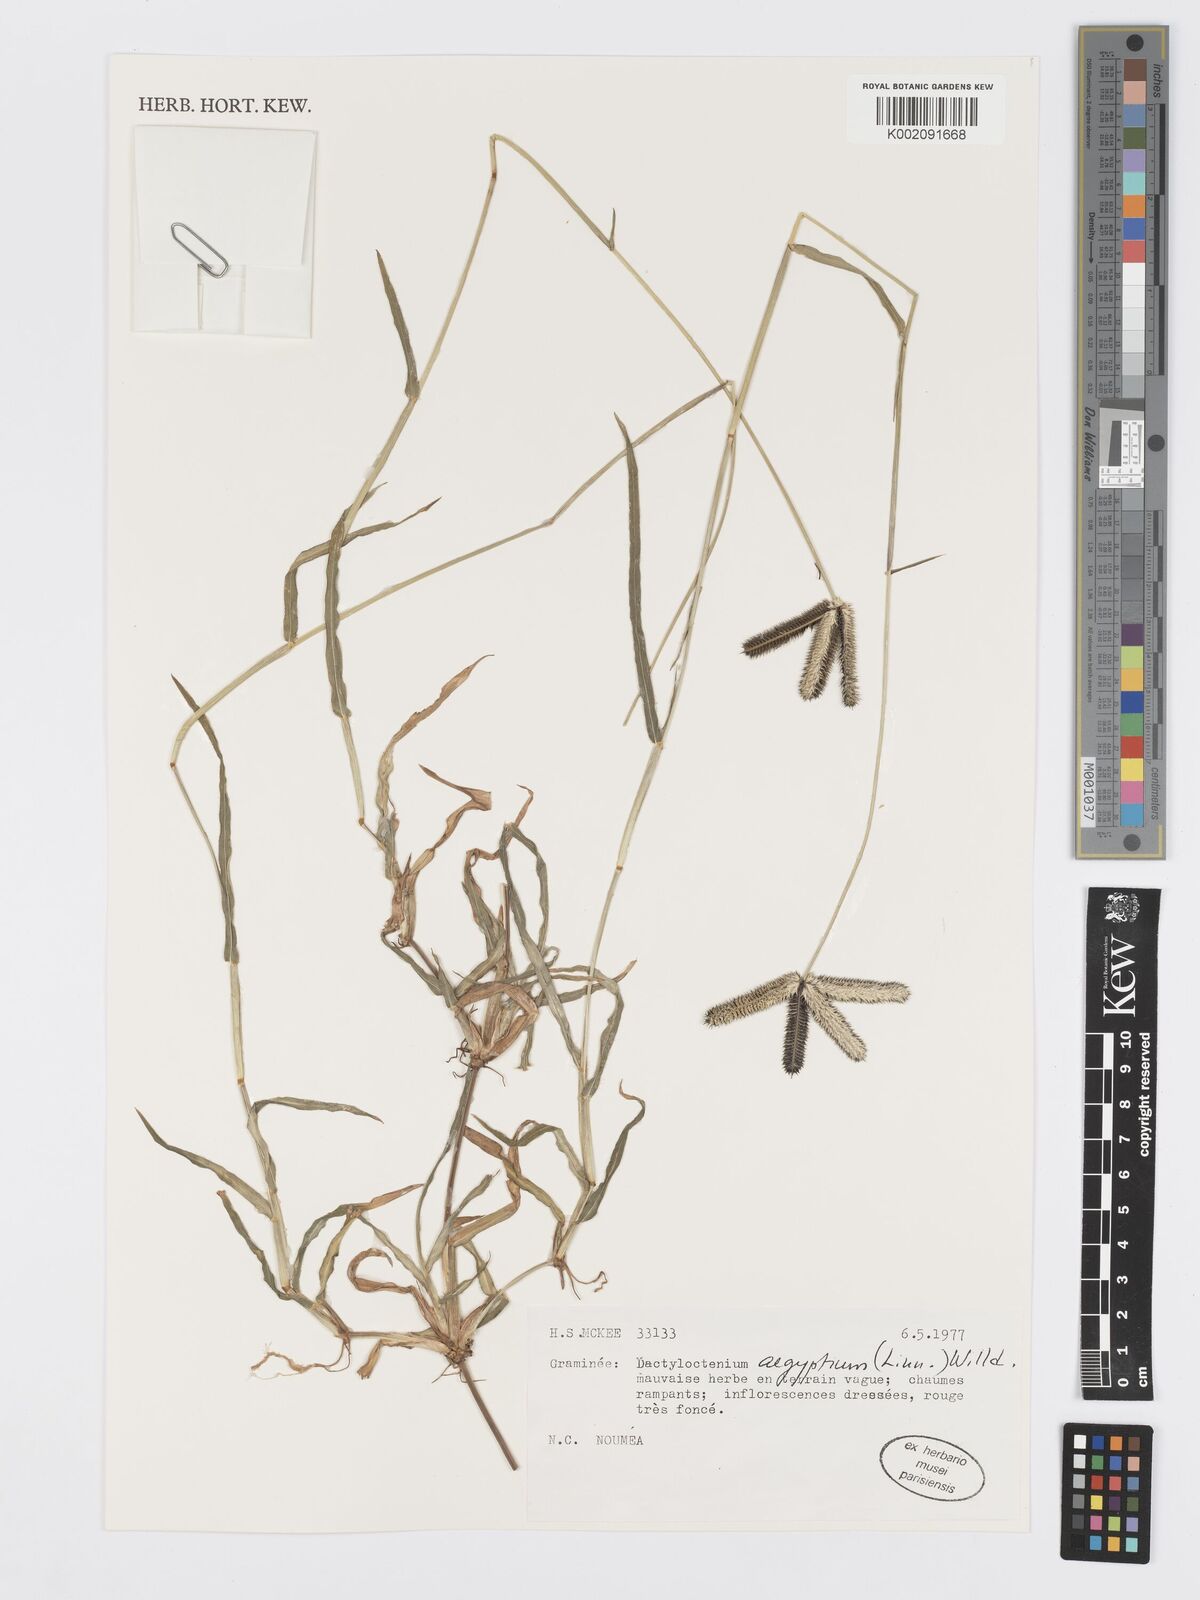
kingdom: Plantae
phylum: Tracheophyta
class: Liliopsida
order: Poales
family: Poaceae
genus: Dactyloctenium
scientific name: Dactyloctenium aegyptium
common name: Egyptian grass
